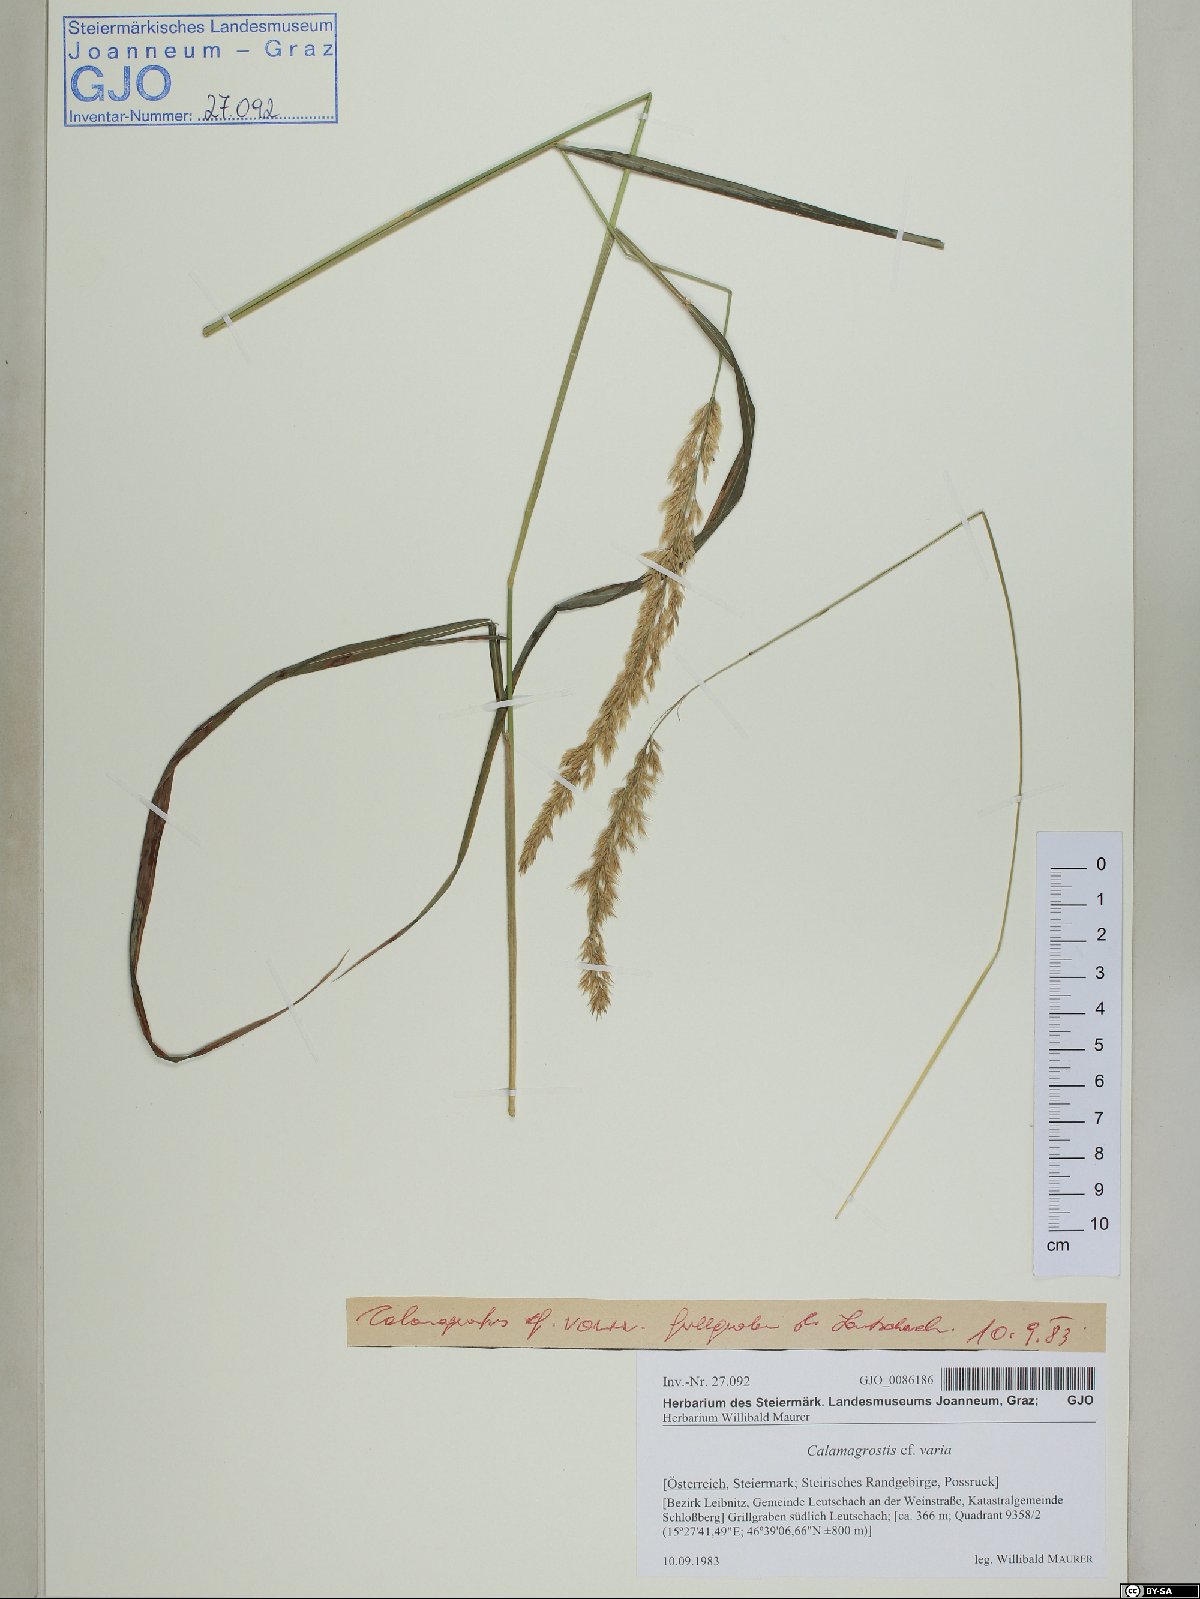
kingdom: Plantae
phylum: Tracheophyta
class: Liliopsida
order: Poales
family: Poaceae
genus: Calamagrostis
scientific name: Calamagrostis varia
